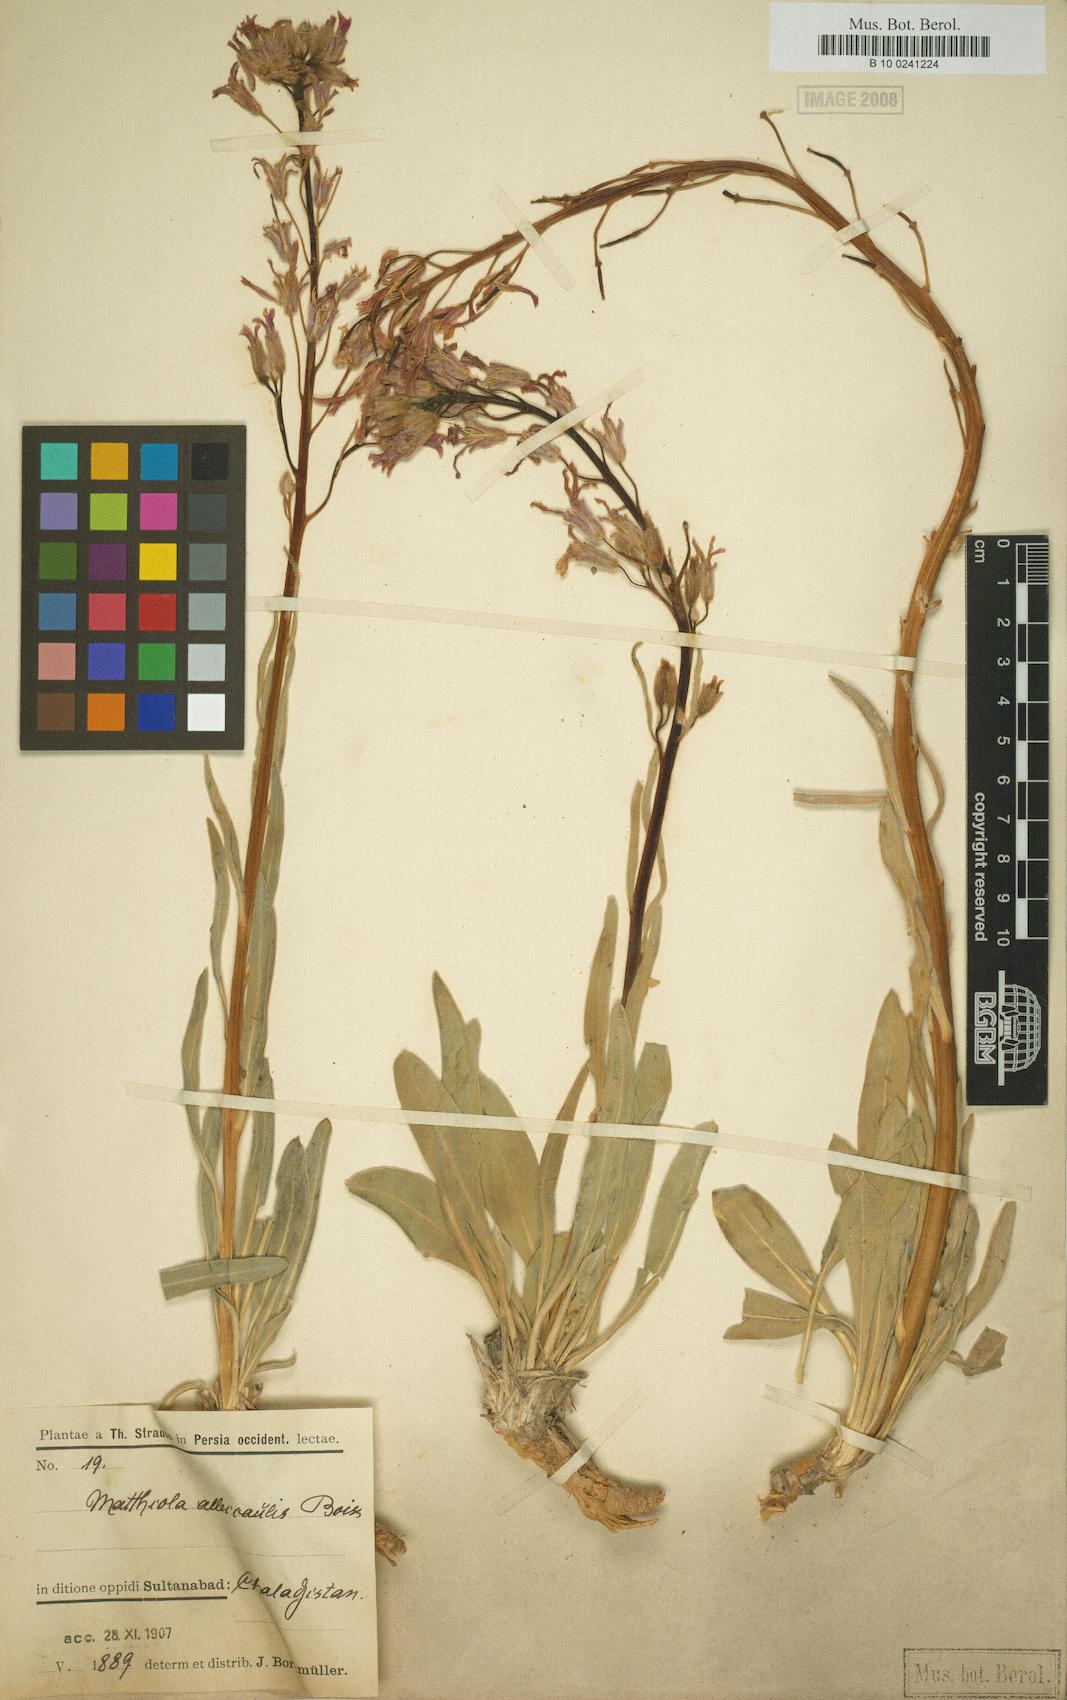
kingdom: Plantae
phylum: Tracheophyta
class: Magnoliopsida
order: Brassicales
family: Brassicaceae
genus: Matthiola
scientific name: Matthiola alyssifolia
